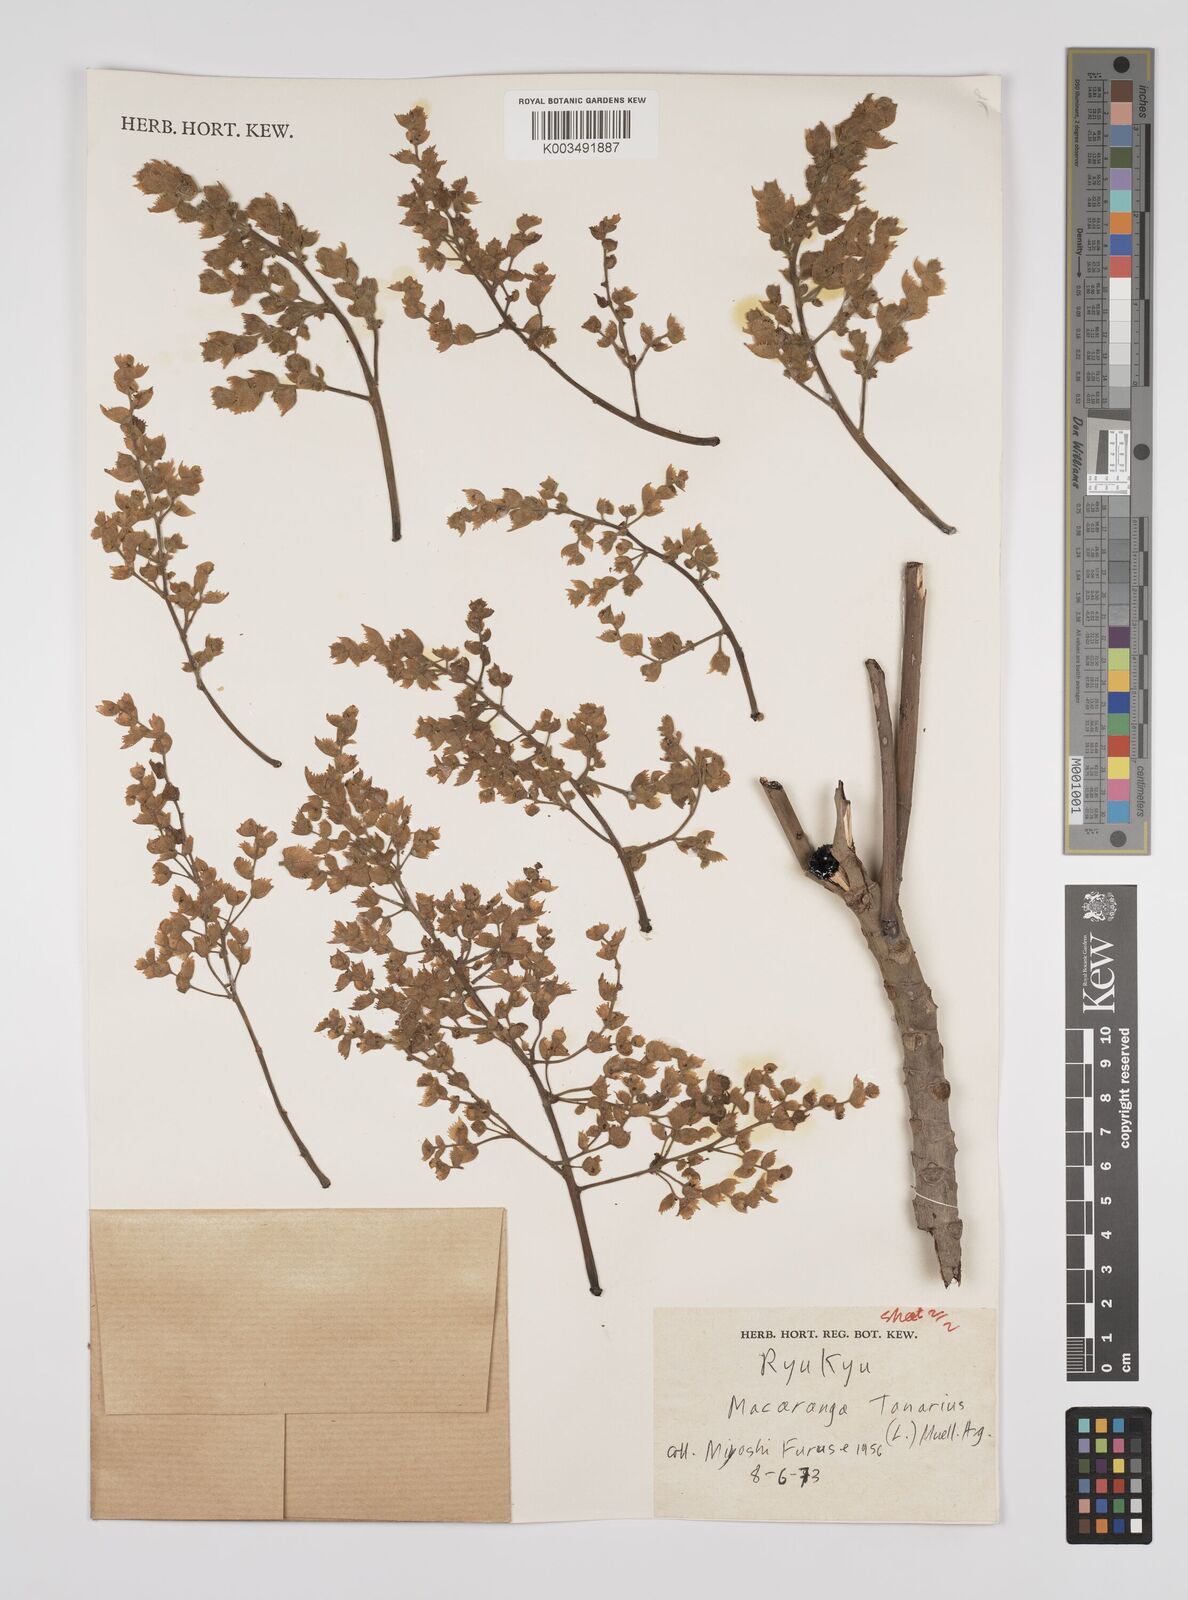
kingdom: Plantae
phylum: Tracheophyta
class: Magnoliopsida
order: Malpighiales
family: Euphorbiaceae
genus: Macaranga
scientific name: Macaranga tanarius
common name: Parasol leaf tree
